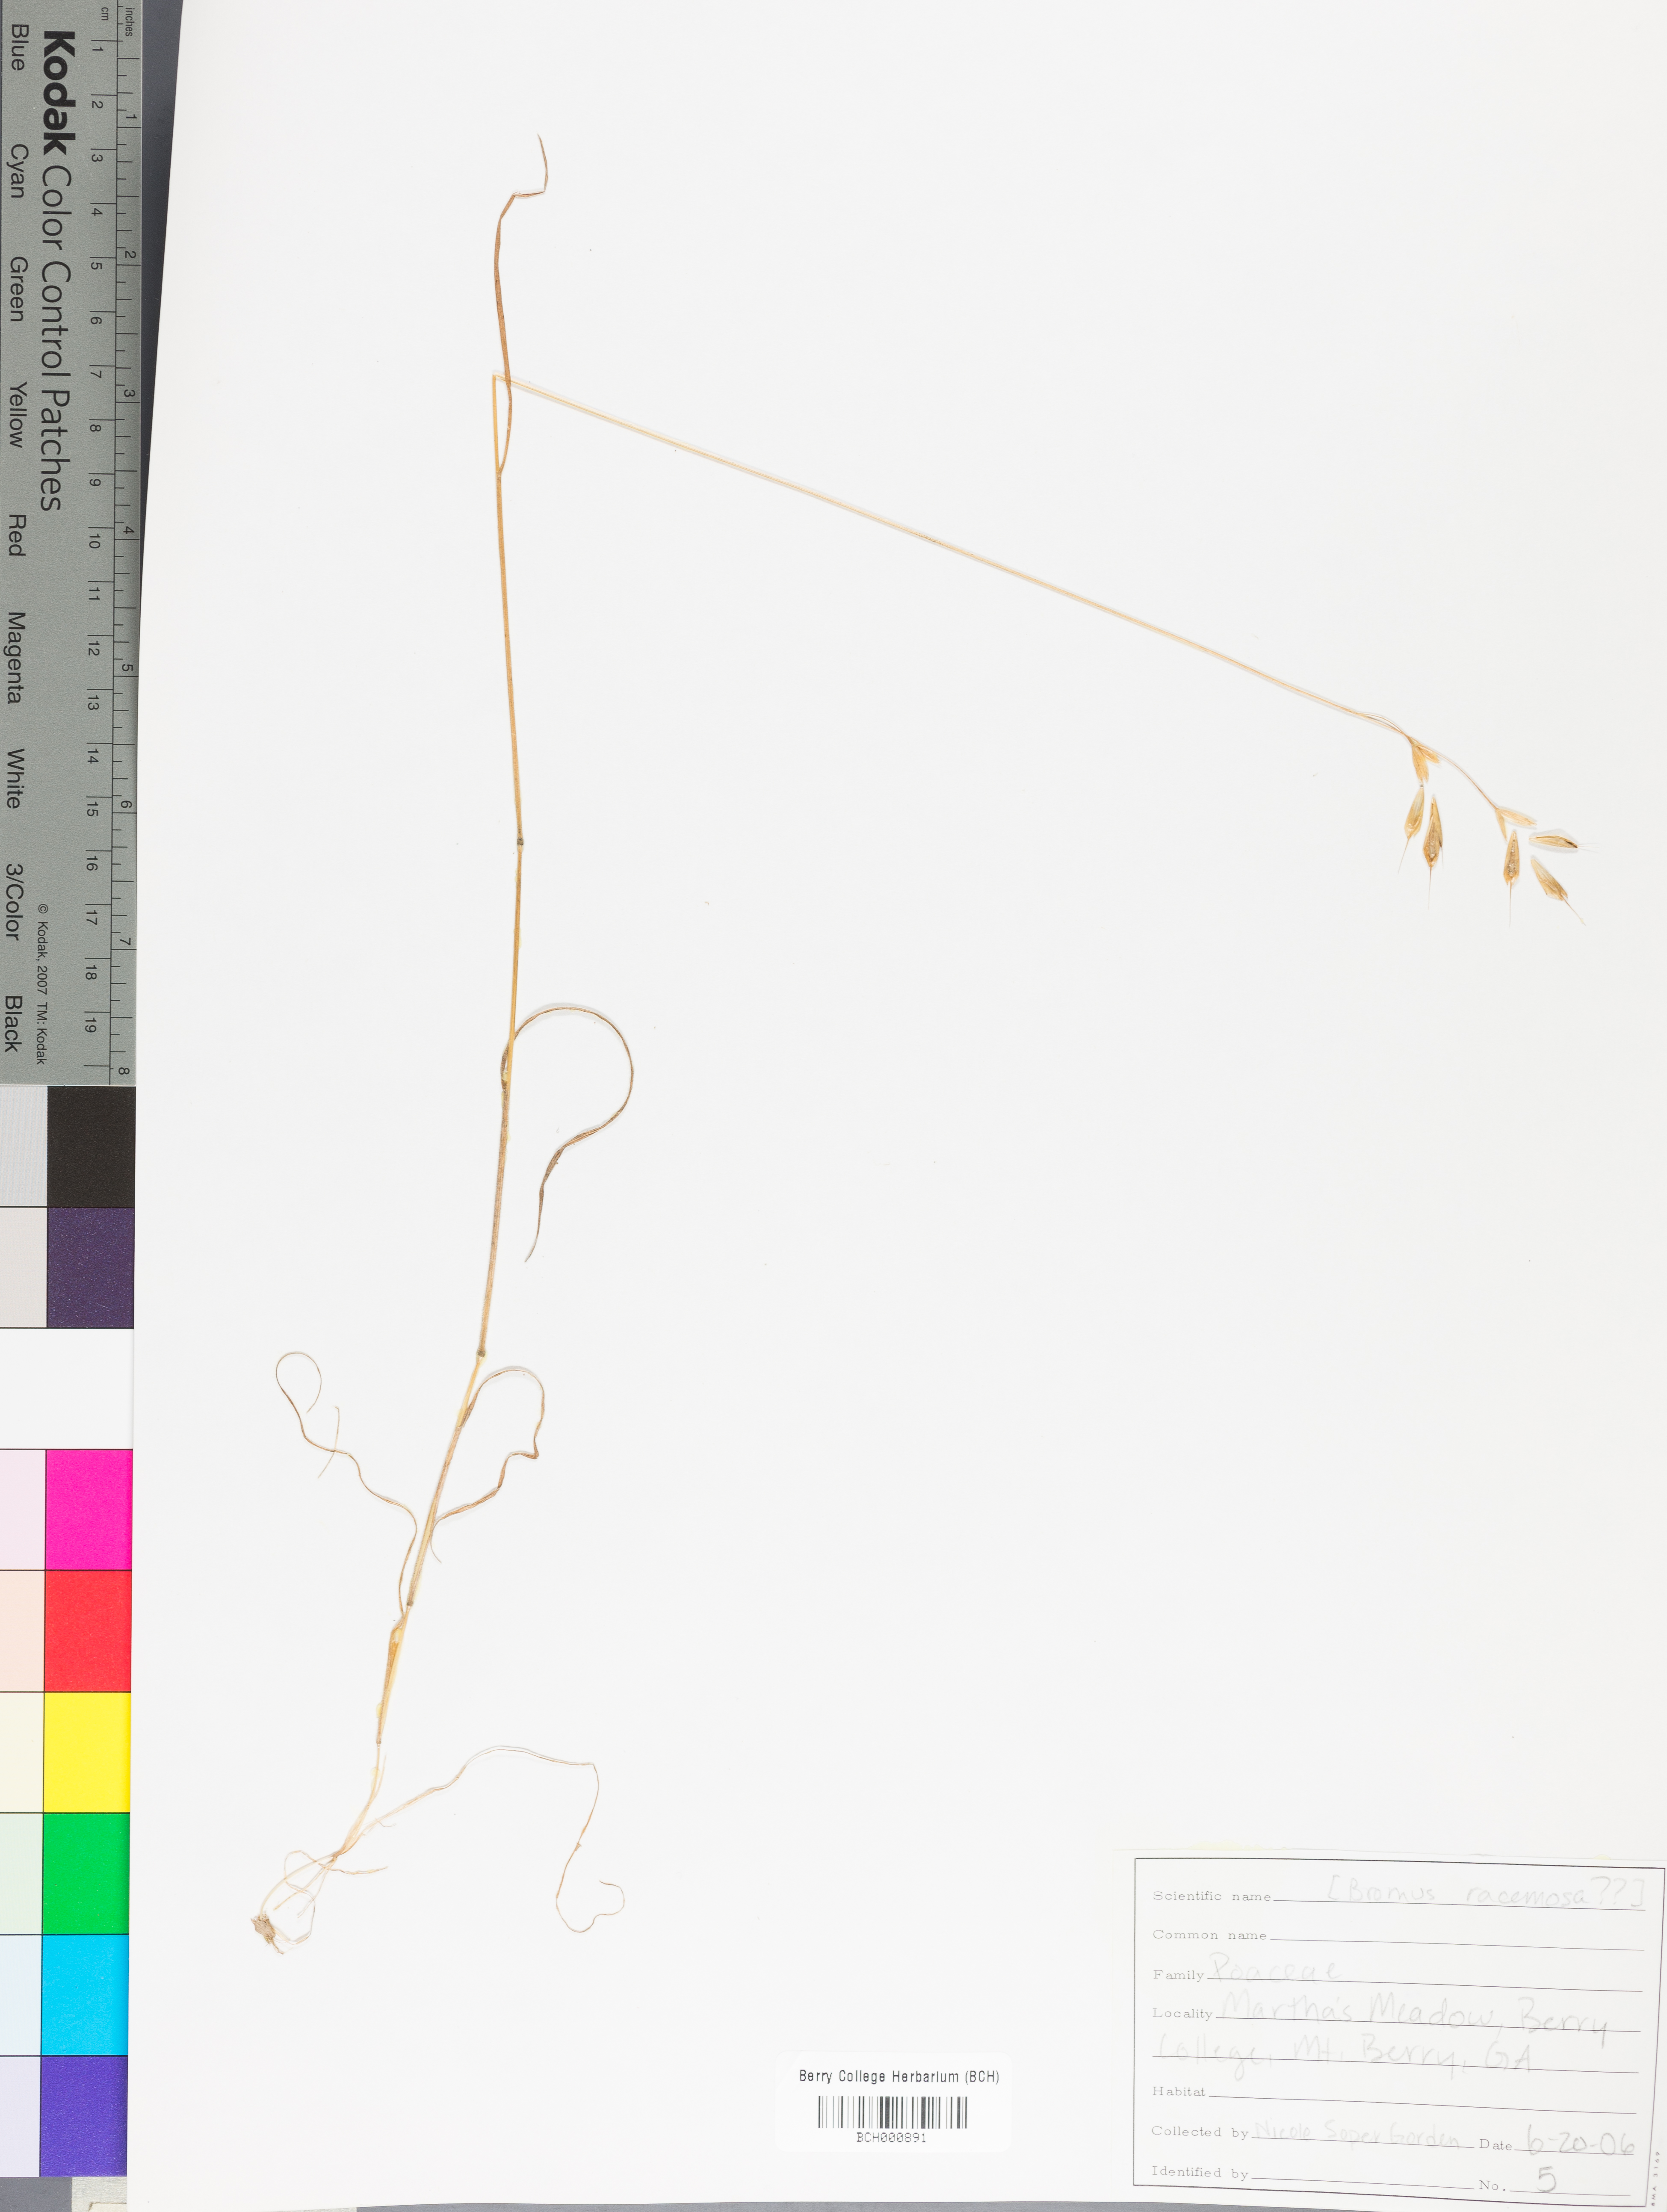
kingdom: Plantae
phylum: Tracheophyta
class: Magnoliopsida
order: Lamiales
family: Acanthaceae
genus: Adhatoda
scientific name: Adhatoda
